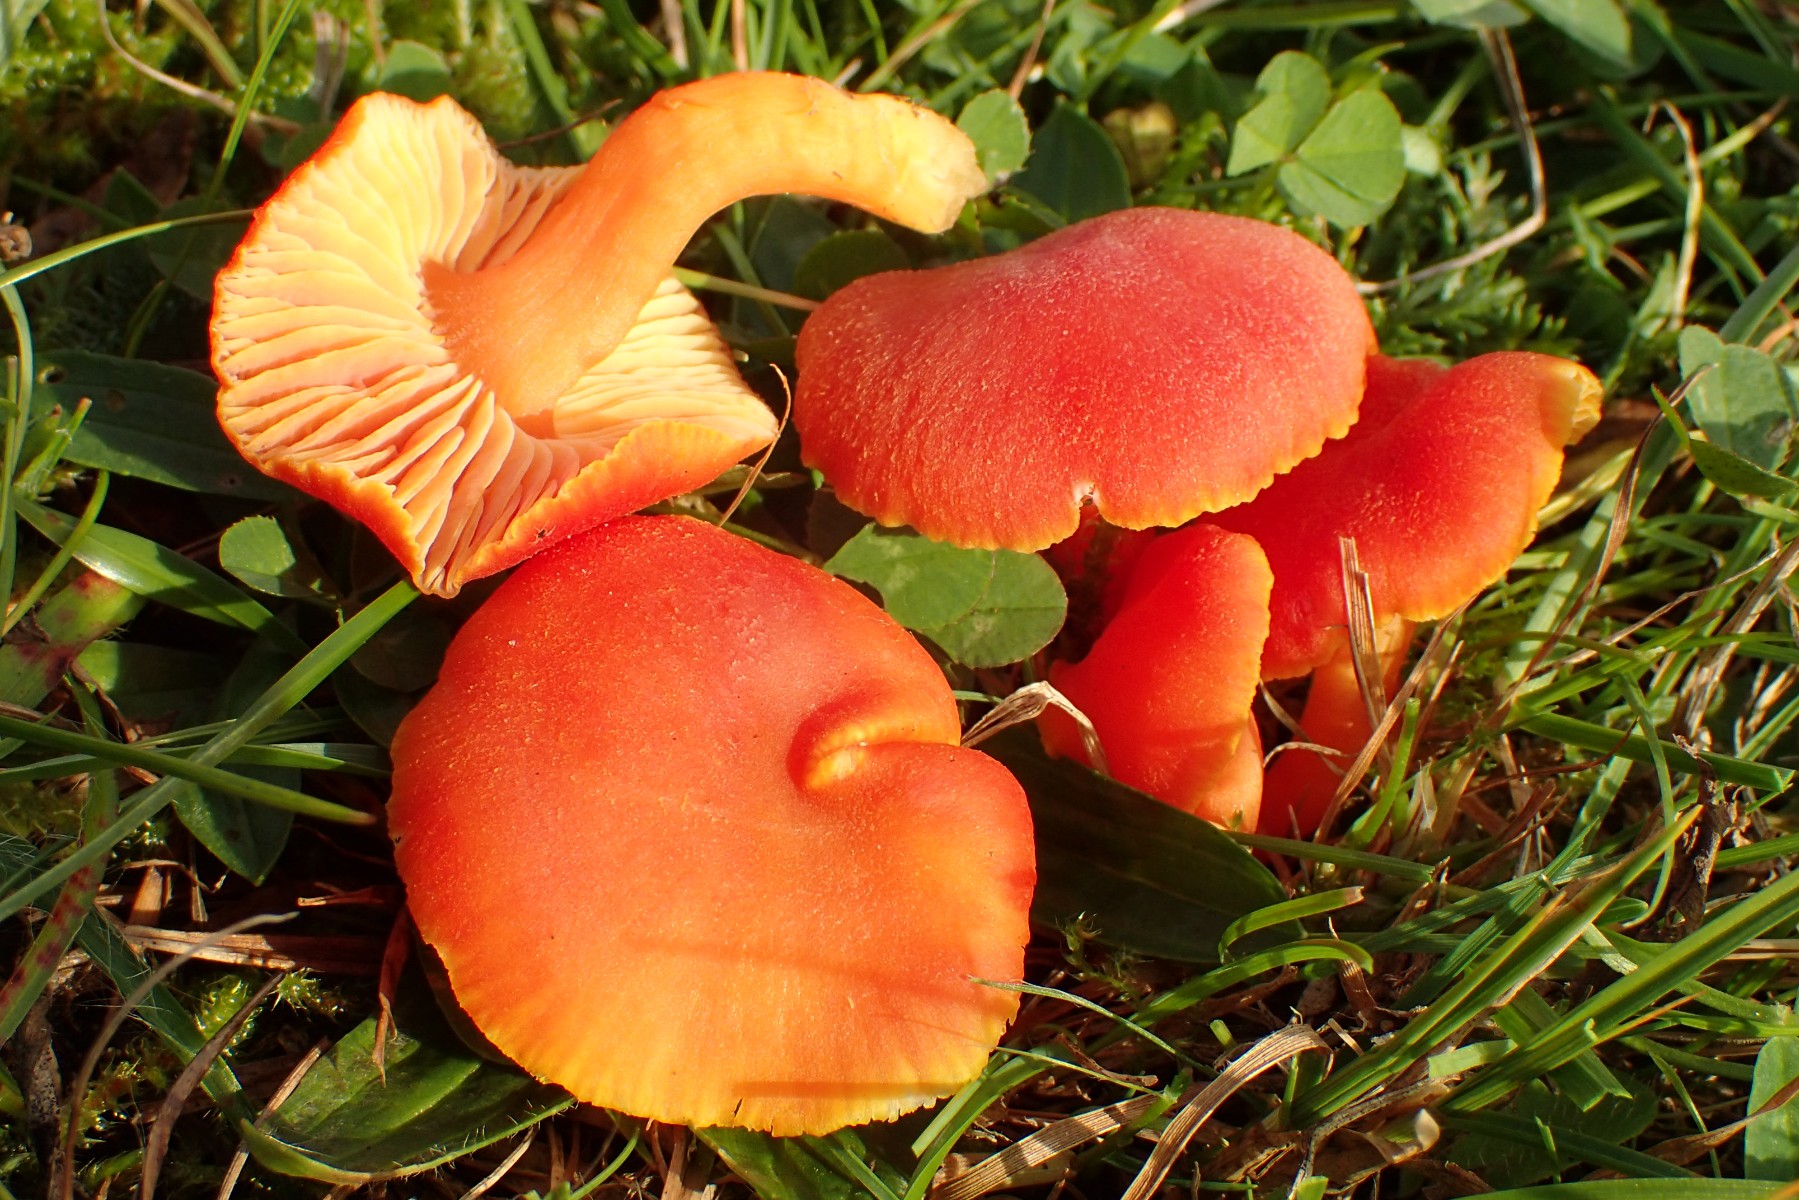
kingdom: Fungi
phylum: Basidiomycota
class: Agaricomycetes
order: Agaricales
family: Hygrophoraceae
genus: Hygrocybe
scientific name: Hygrocybe miniata
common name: mønje-vokshat
